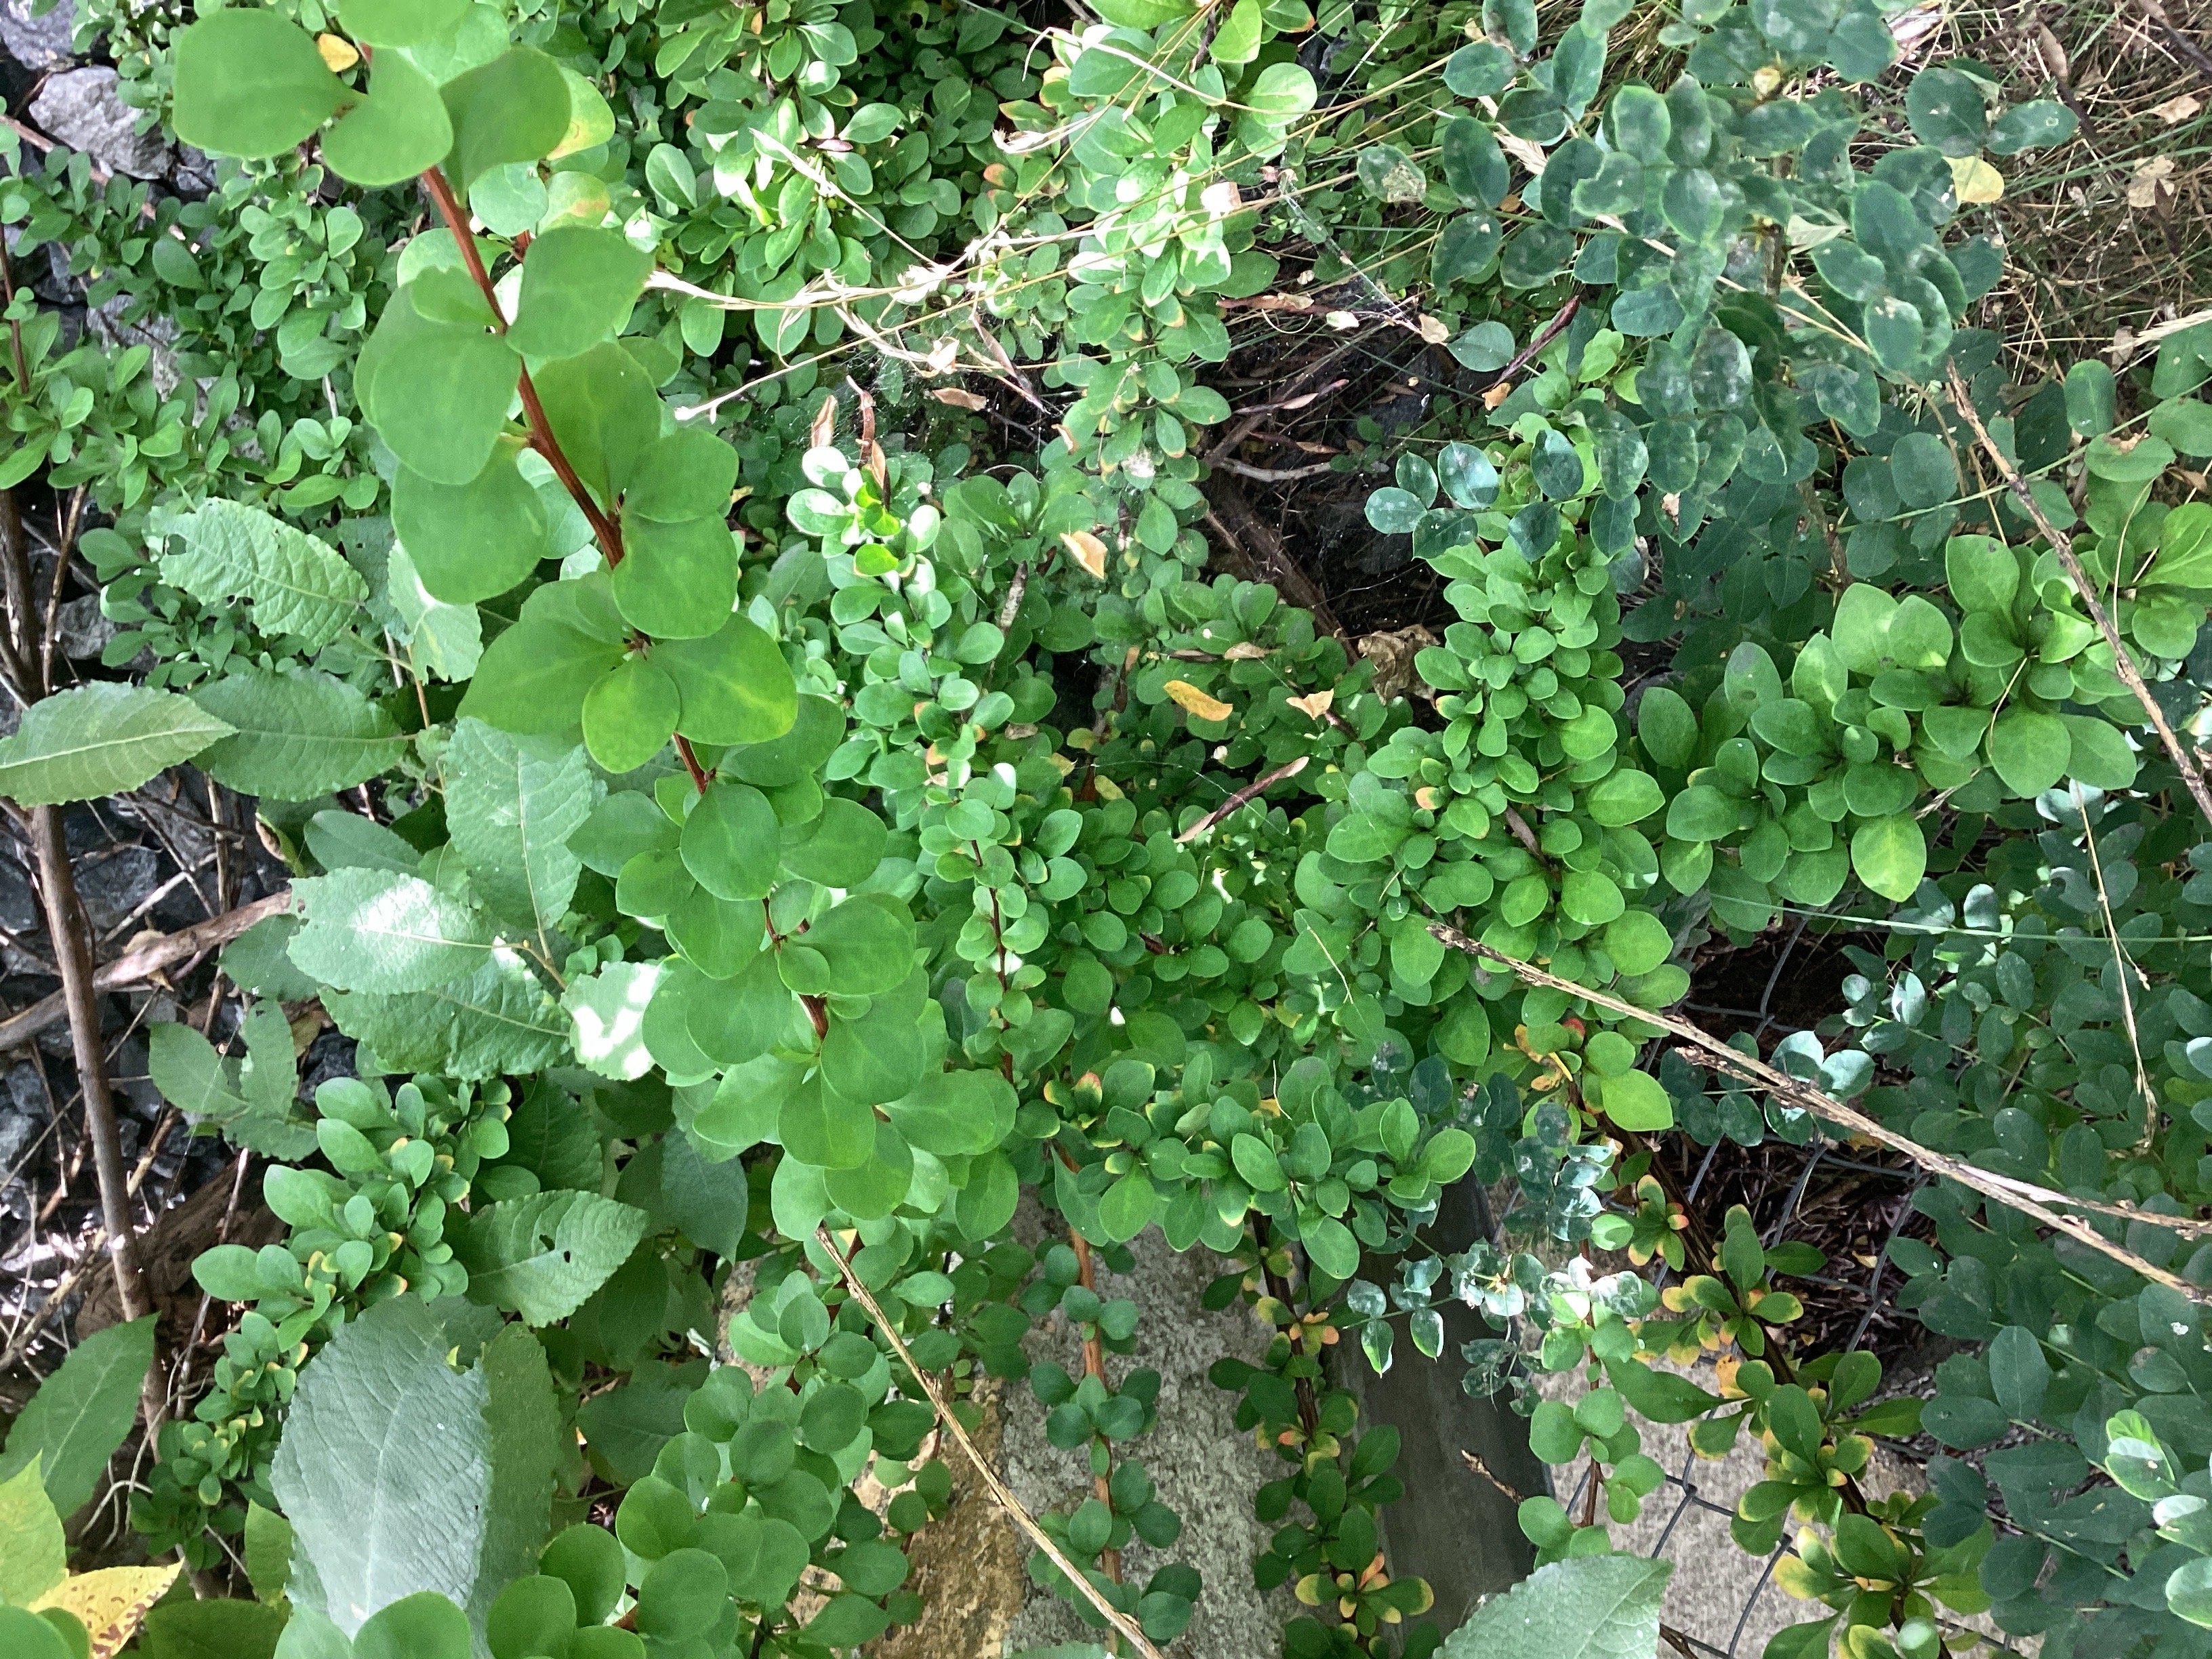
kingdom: Plantae
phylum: Tracheophyta
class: Magnoliopsida
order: Ranunculales
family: Berberidaceae
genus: Berberis
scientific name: Berberis thunbergii
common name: høstberberis
